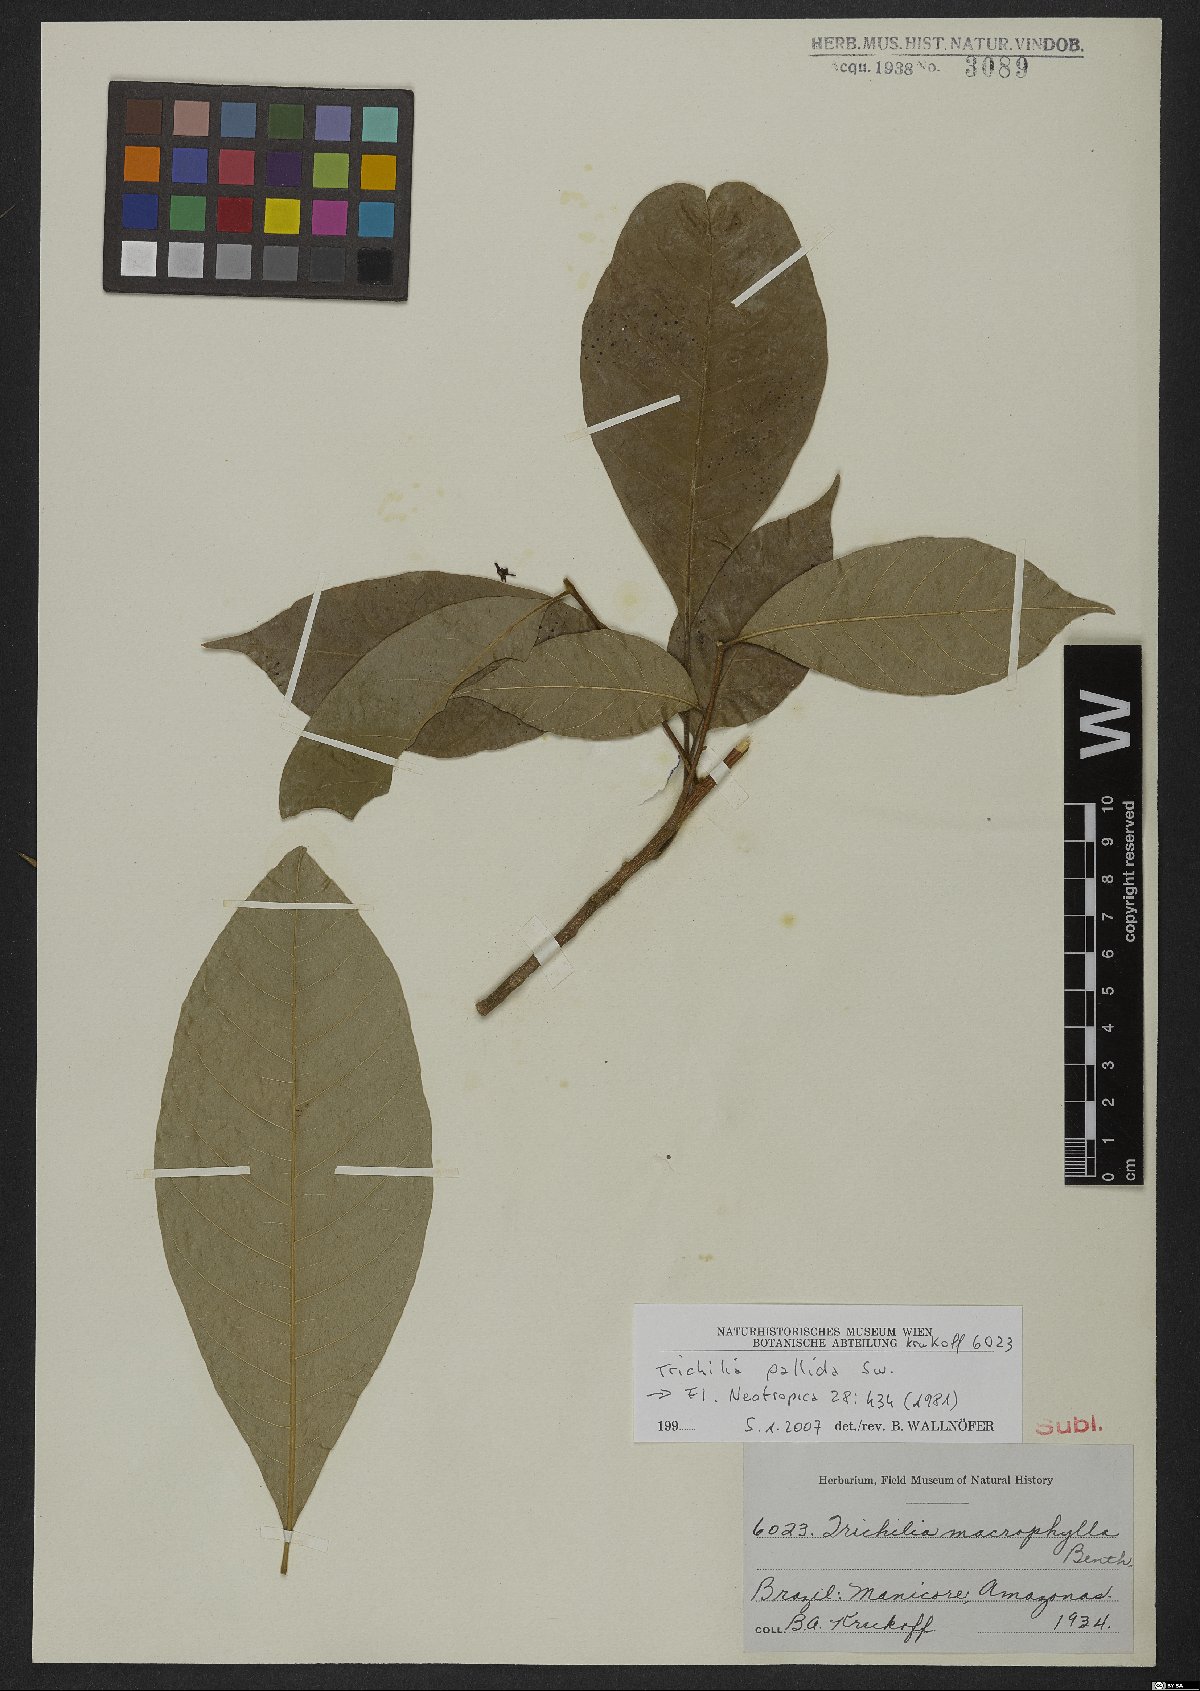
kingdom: Plantae
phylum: Tracheophyta
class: Magnoliopsida
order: Sapindales
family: Meliaceae
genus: Trichilia
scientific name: Trichilia pallida
